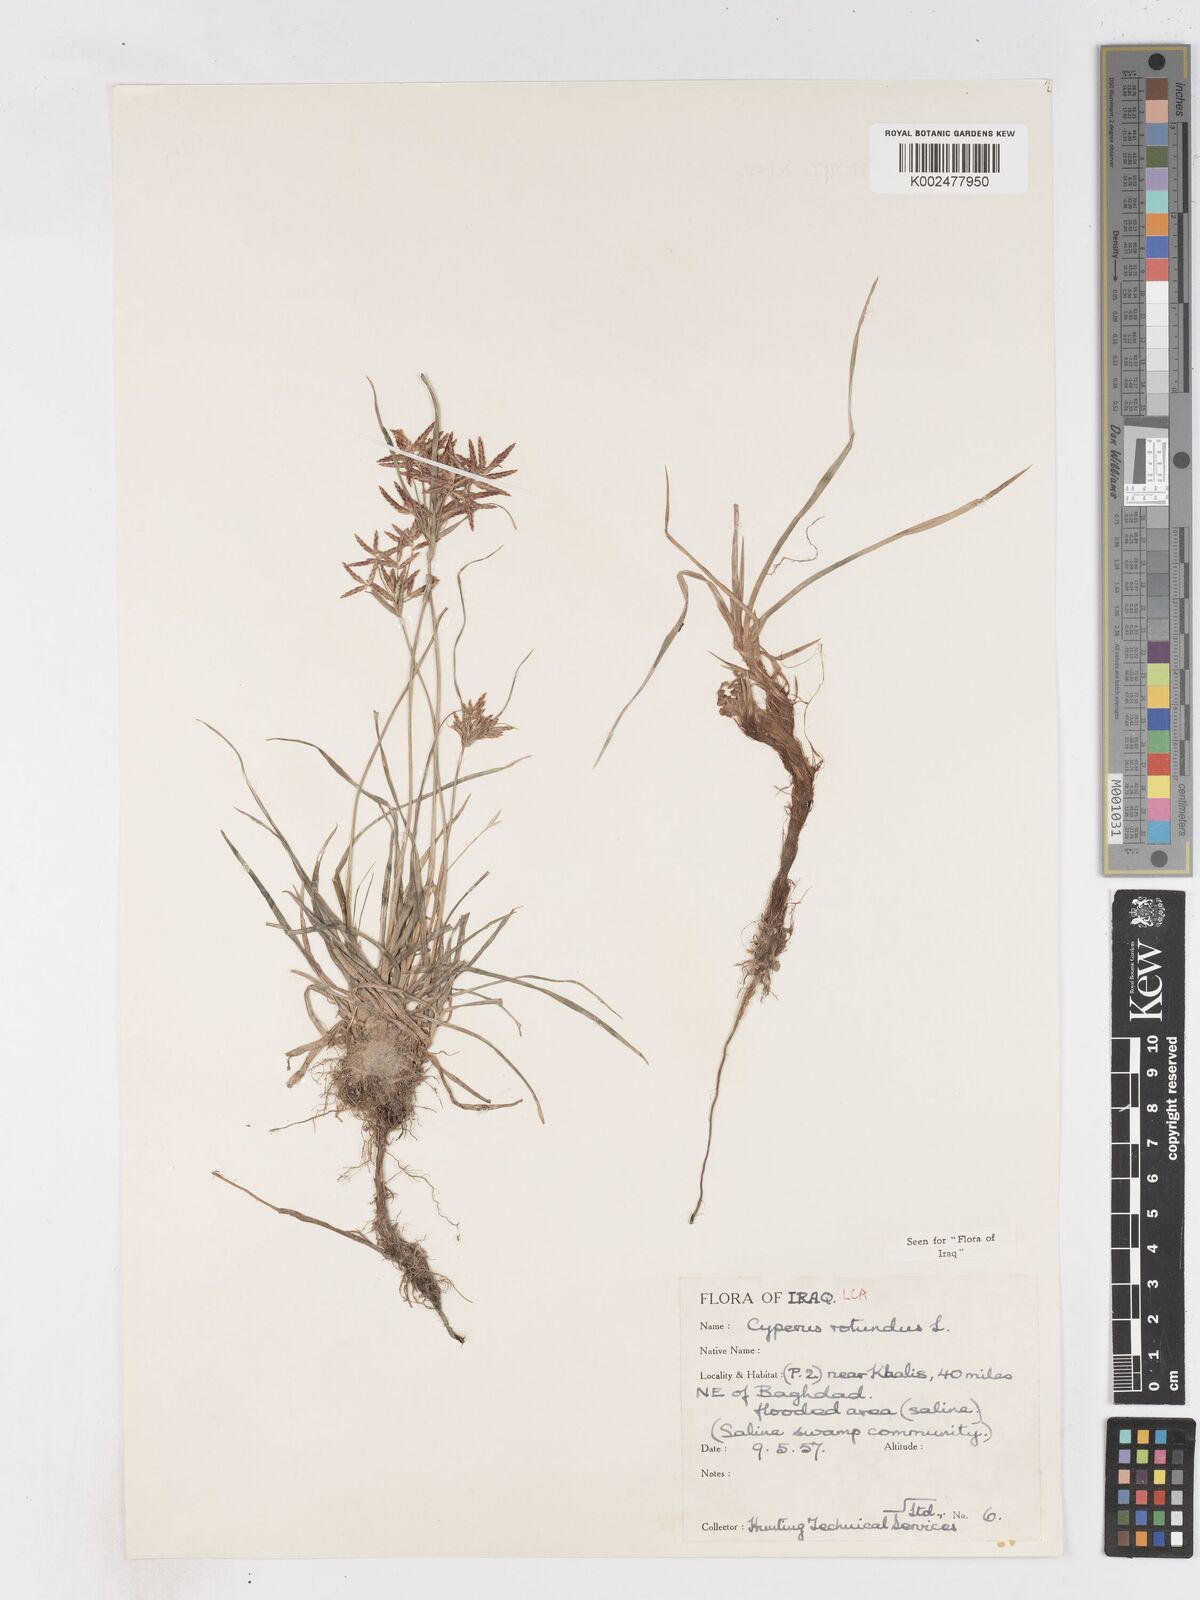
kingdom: Plantae
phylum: Tracheophyta
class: Liliopsida
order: Poales
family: Cyperaceae
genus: Cyperus
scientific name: Cyperus rotundus
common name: Nutgrass
